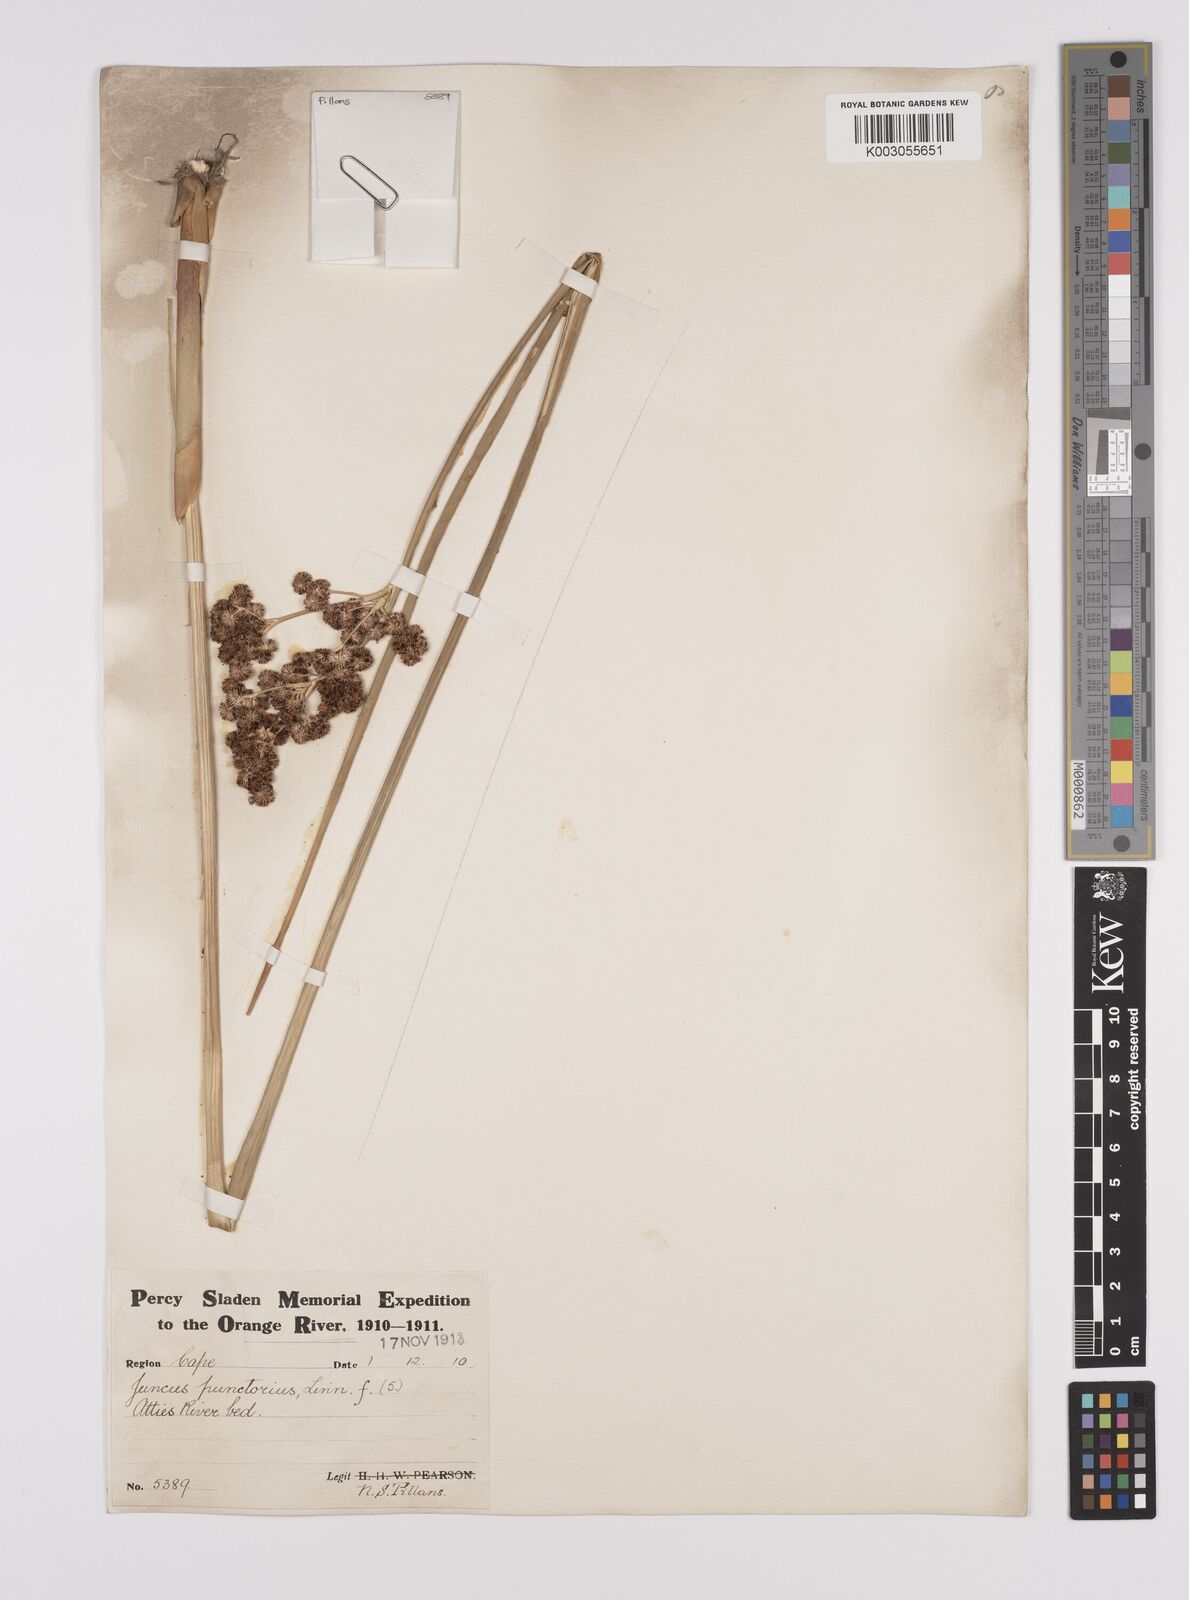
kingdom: Plantae
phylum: Tracheophyta
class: Liliopsida
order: Poales
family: Juncaceae
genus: Juncus
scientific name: Juncus punctorius
